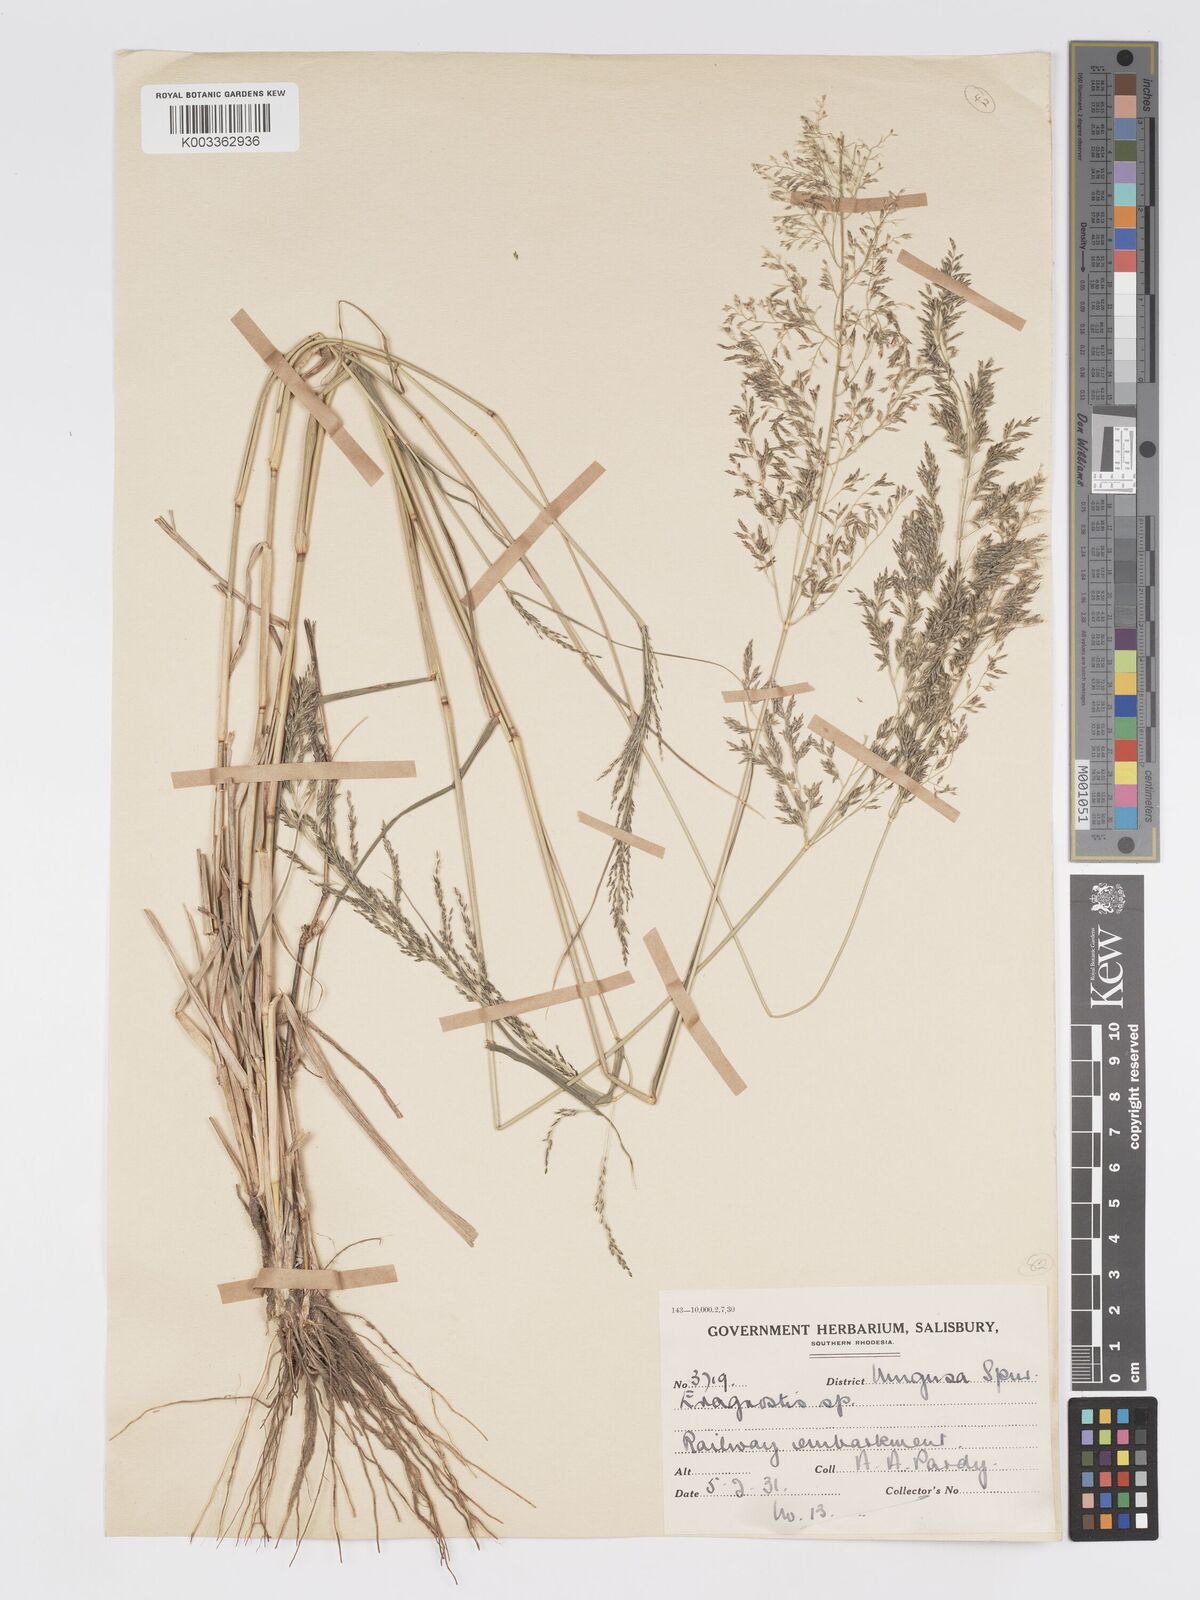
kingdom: Plantae
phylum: Tracheophyta
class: Liliopsida
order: Poales
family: Poaceae
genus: Eragrostis
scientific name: Eragrostis cylindriflora
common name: Cylinderflower lovegrass
